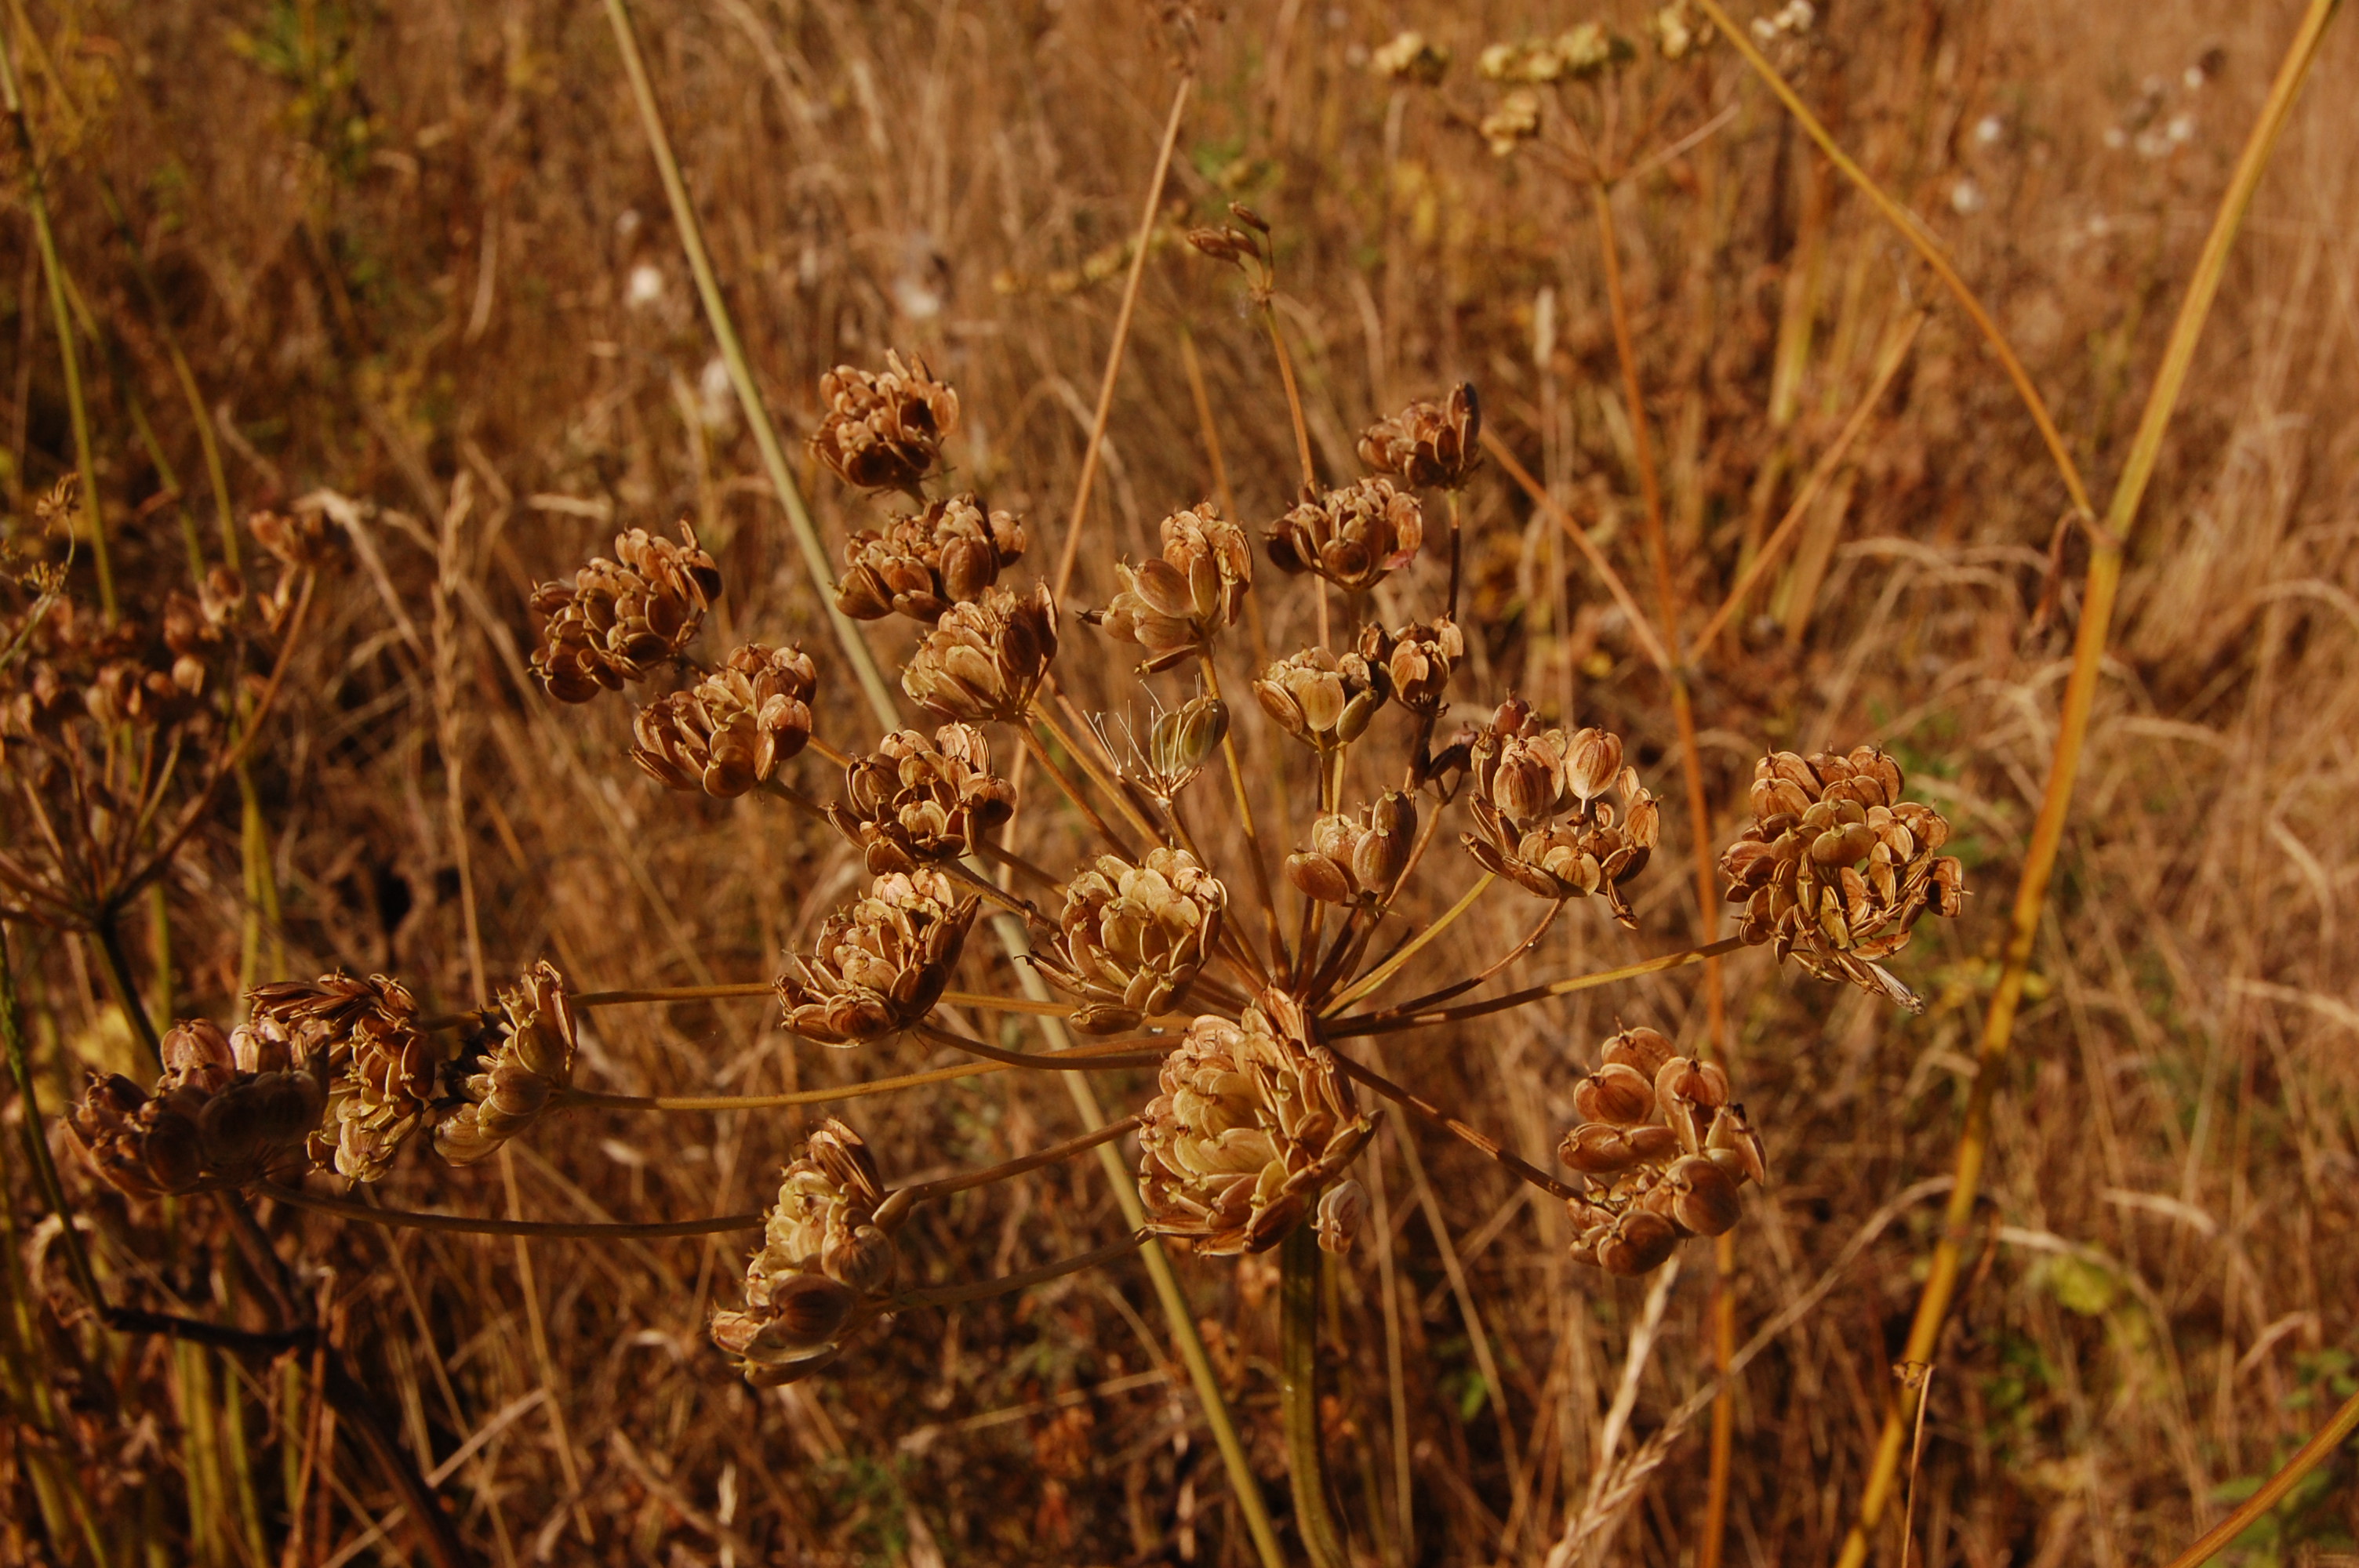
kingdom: Plantae
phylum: Tracheophyta
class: Magnoliopsida
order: Apiales
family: Apiaceae
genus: Pastinaca
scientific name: Pastinaca sativa
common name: Wild parsnip
